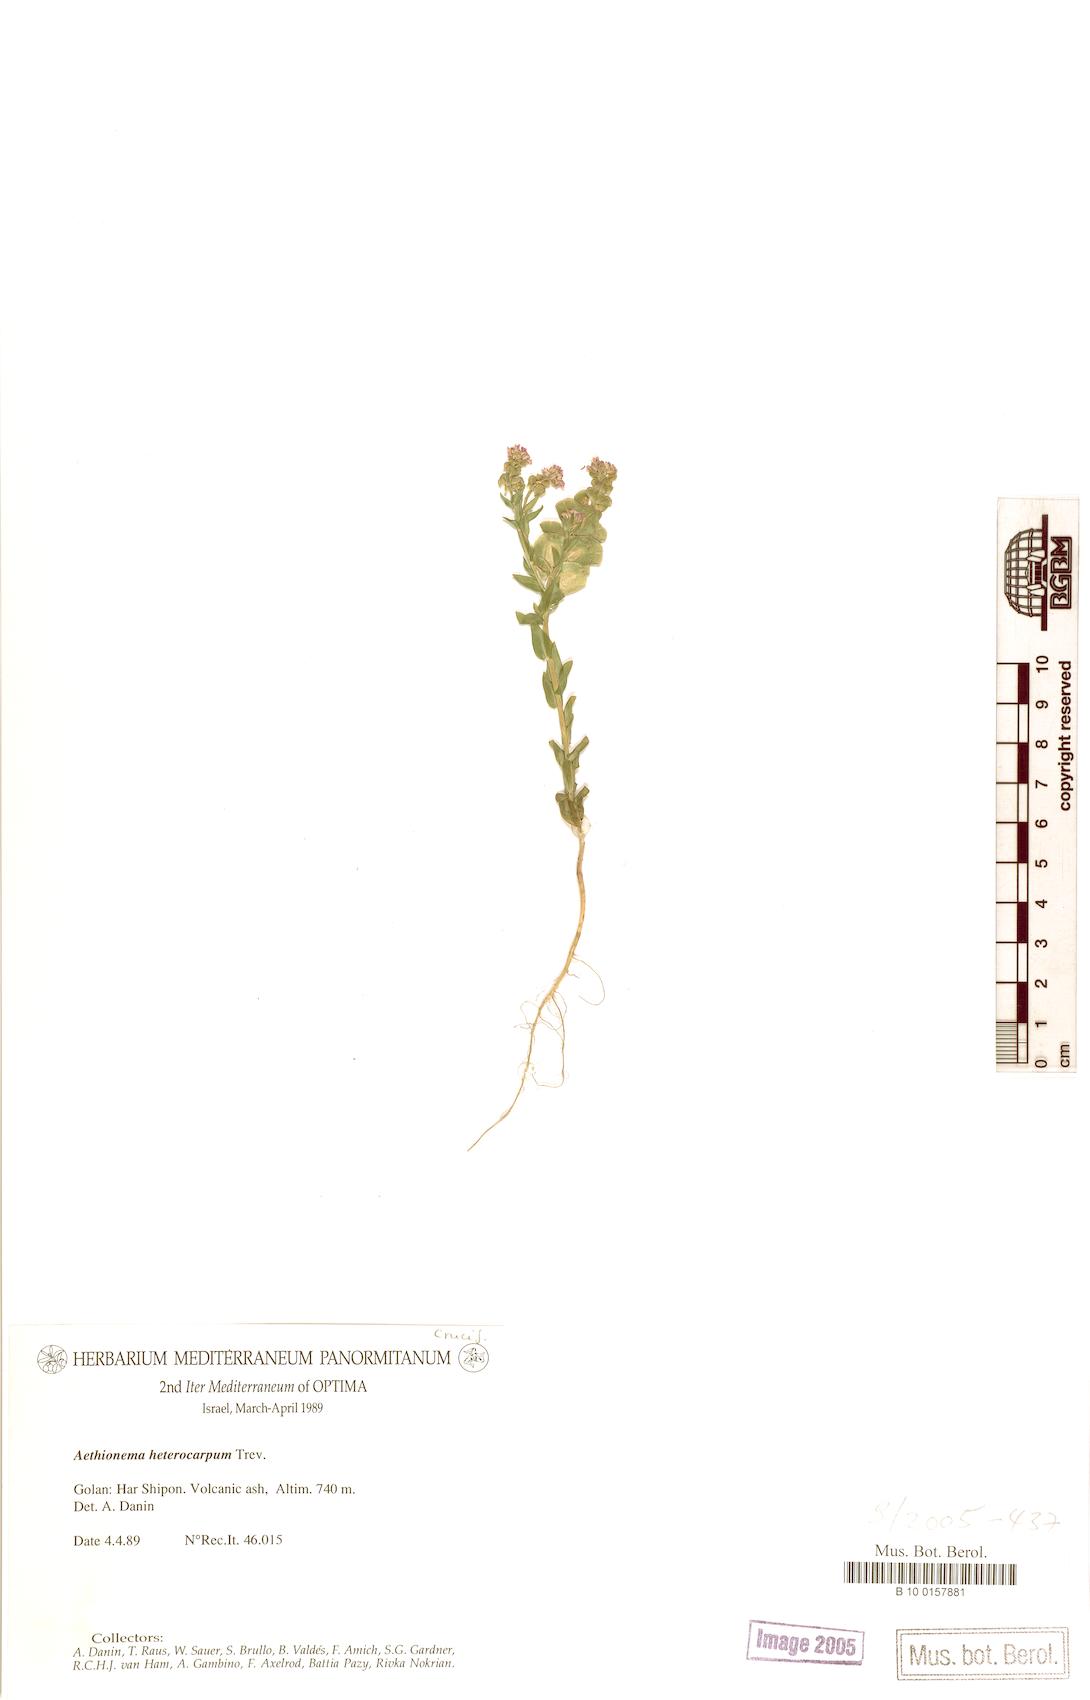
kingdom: Plantae
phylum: Tracheophyta
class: Magnoliopsida
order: Brassicales
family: Brassicaceae
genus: Aethionema
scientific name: Aethionema heterocarpum
